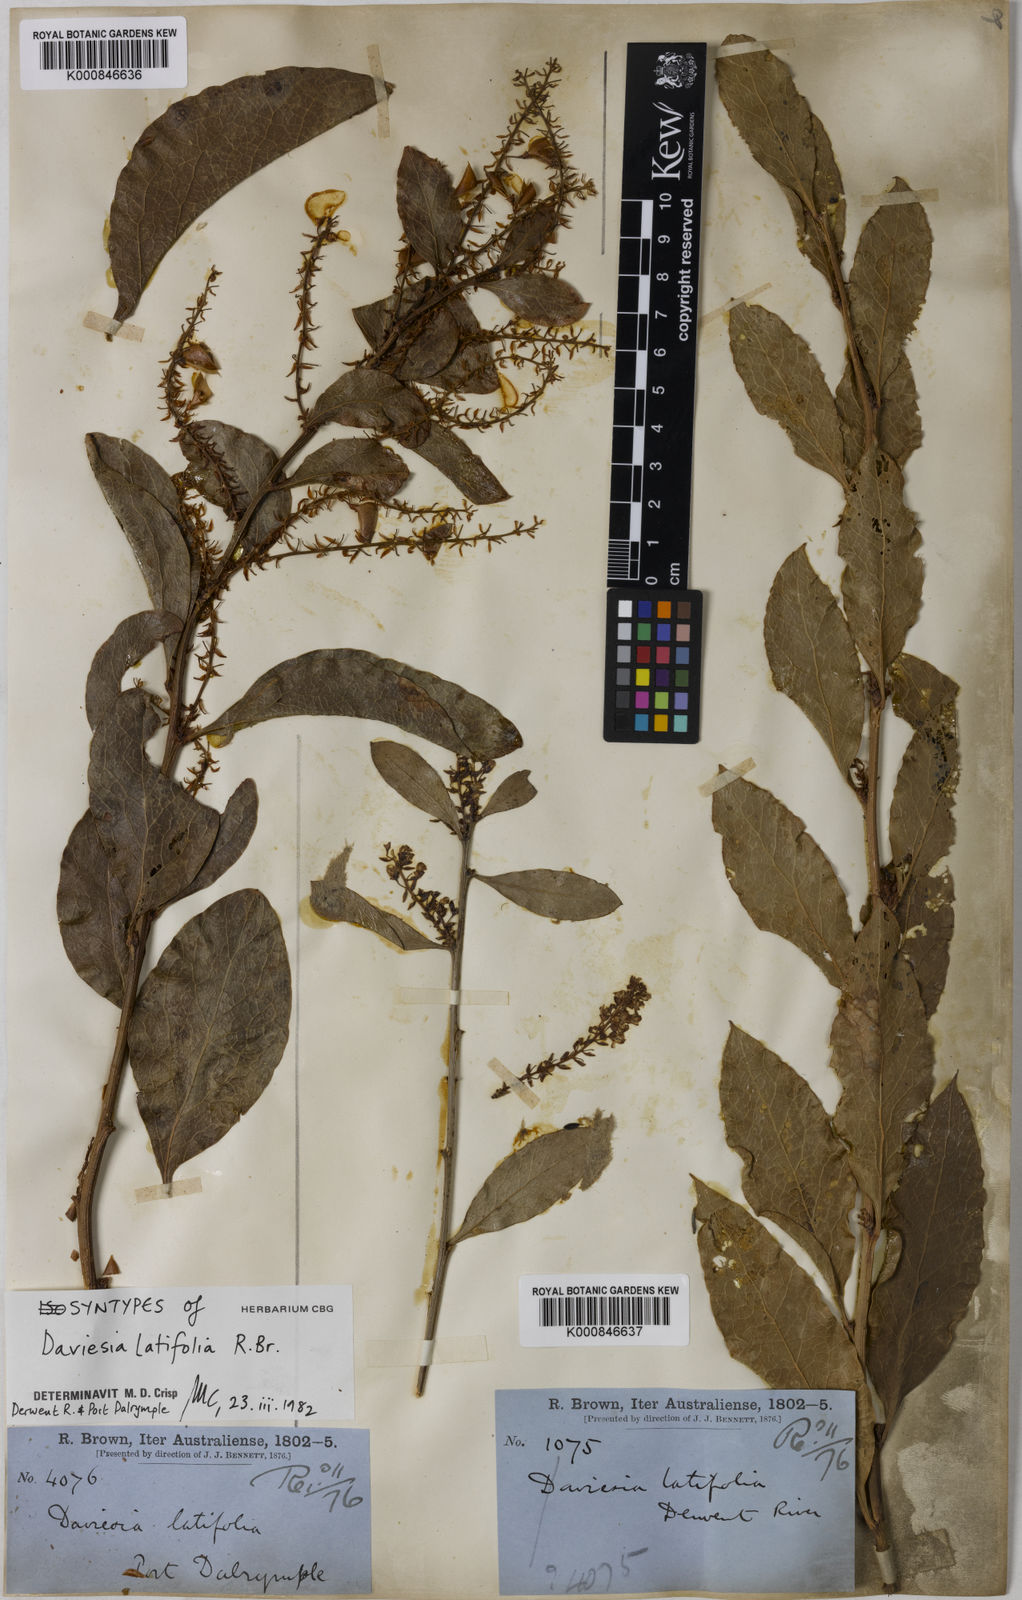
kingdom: Plantae
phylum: Tracheophyta
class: Magnoliopsida
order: Fabales
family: Fabaceae
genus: Daviesia
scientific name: Daviesia latifolia
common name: Hop bitter-pea
